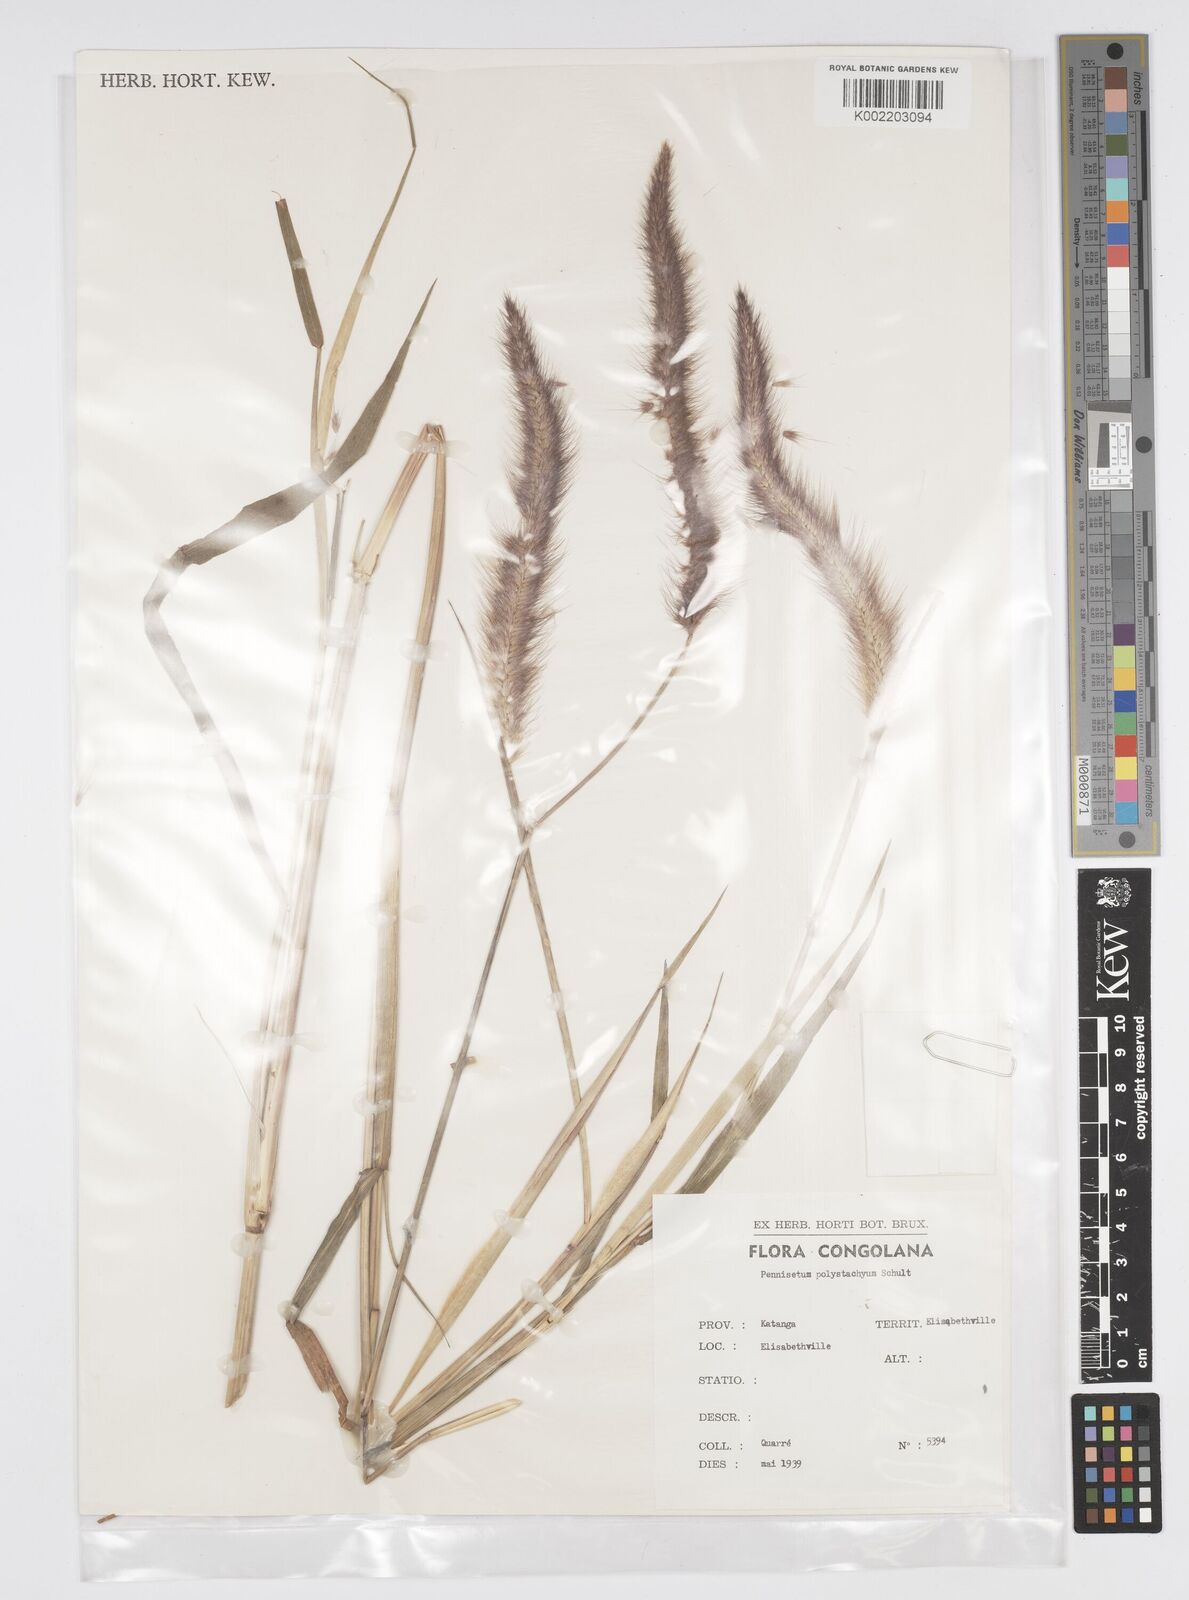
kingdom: Plantae
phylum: Tracheophyta
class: Liliopsida
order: Poales
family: Poaceae
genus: Setaria
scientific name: Setaria parviflora
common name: Knotroot bristle-grass
